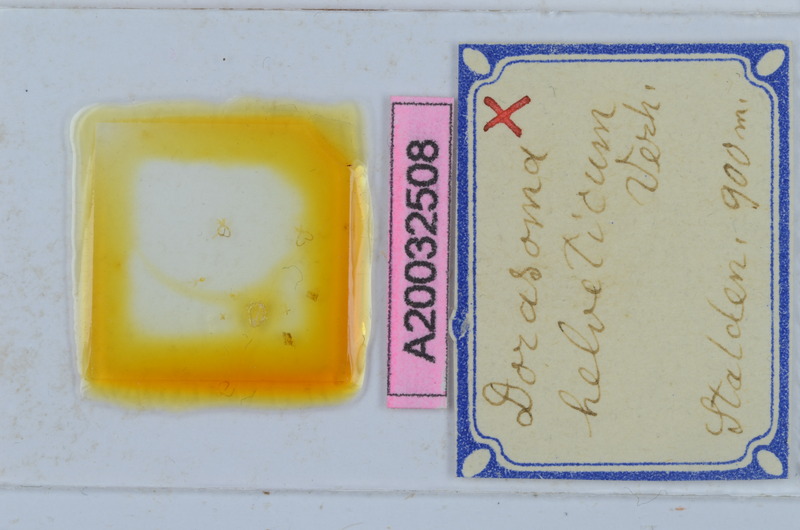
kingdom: Animalia
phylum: Arthropoda
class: Diplopoda
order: Chordeumatida
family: Craspedosomatidae
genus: Bomogona
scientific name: Bomogona helvetica
